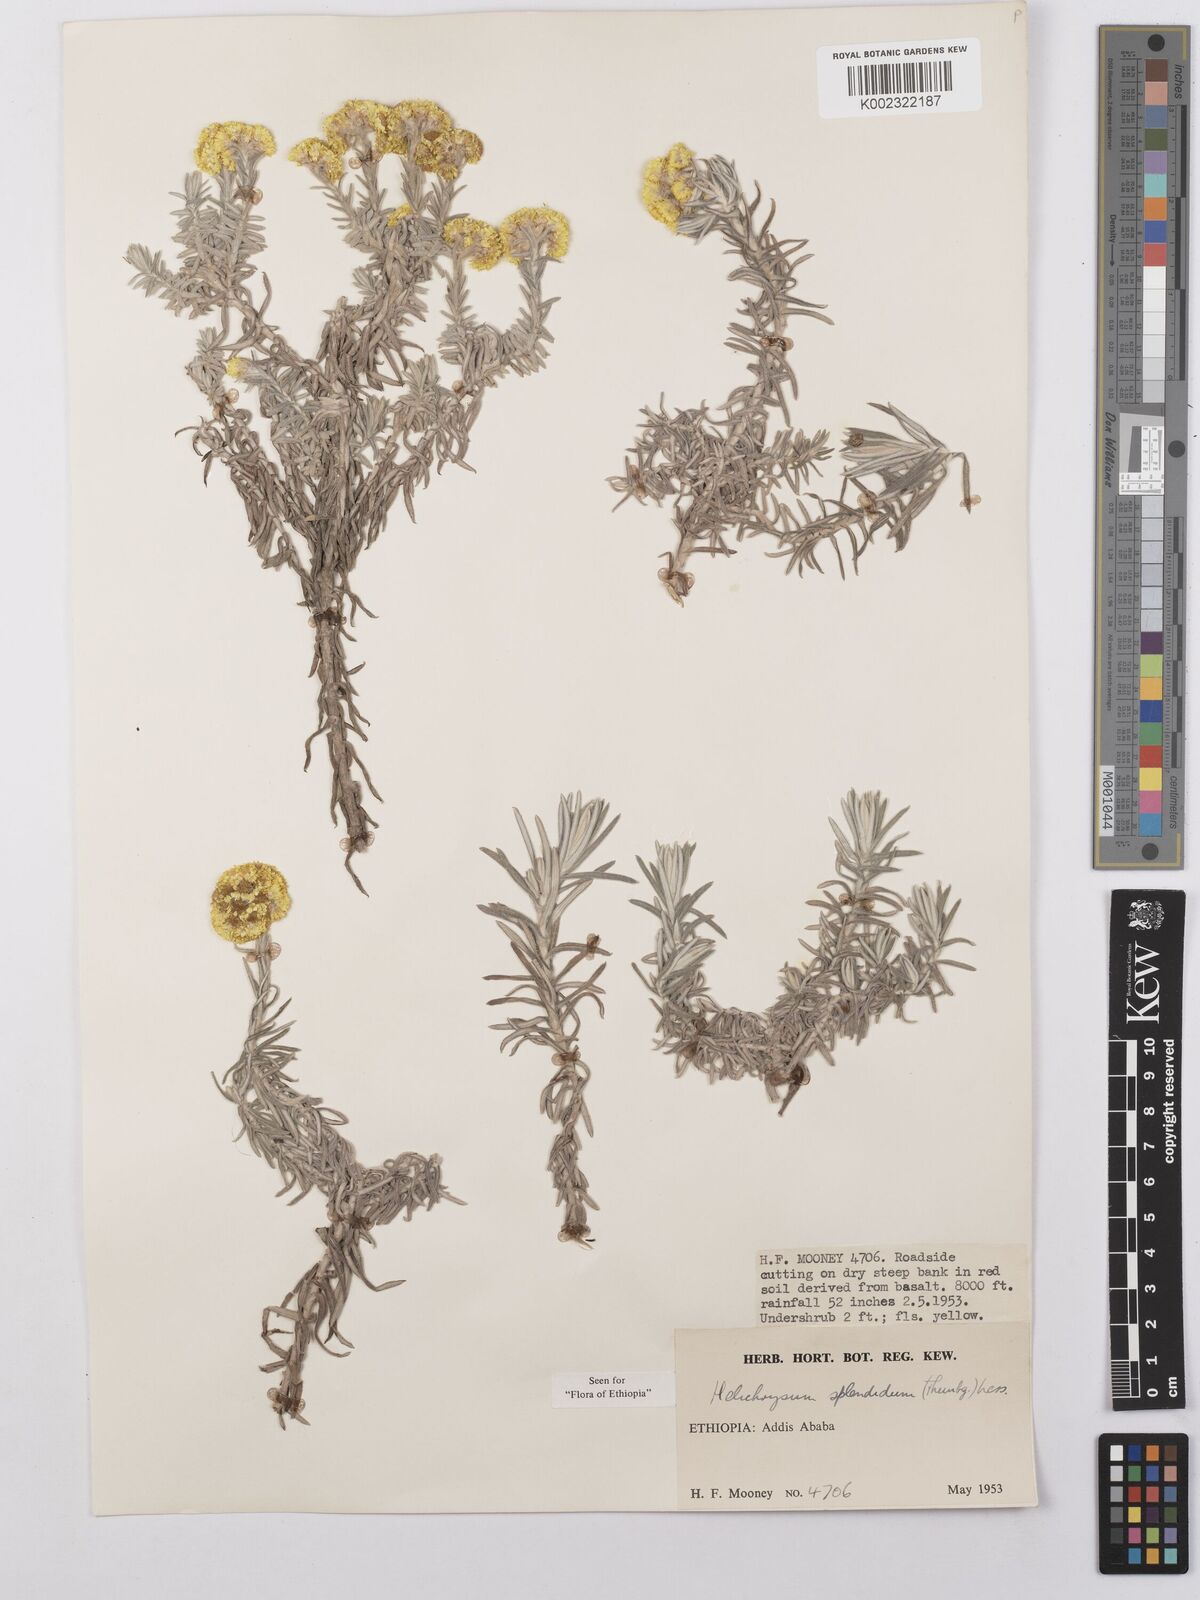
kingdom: Plantae
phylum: Tracheophyta
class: Magnoliopsida
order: Asterales
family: Asteraceae
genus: Helichrysum
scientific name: Helichrysum splendidum
